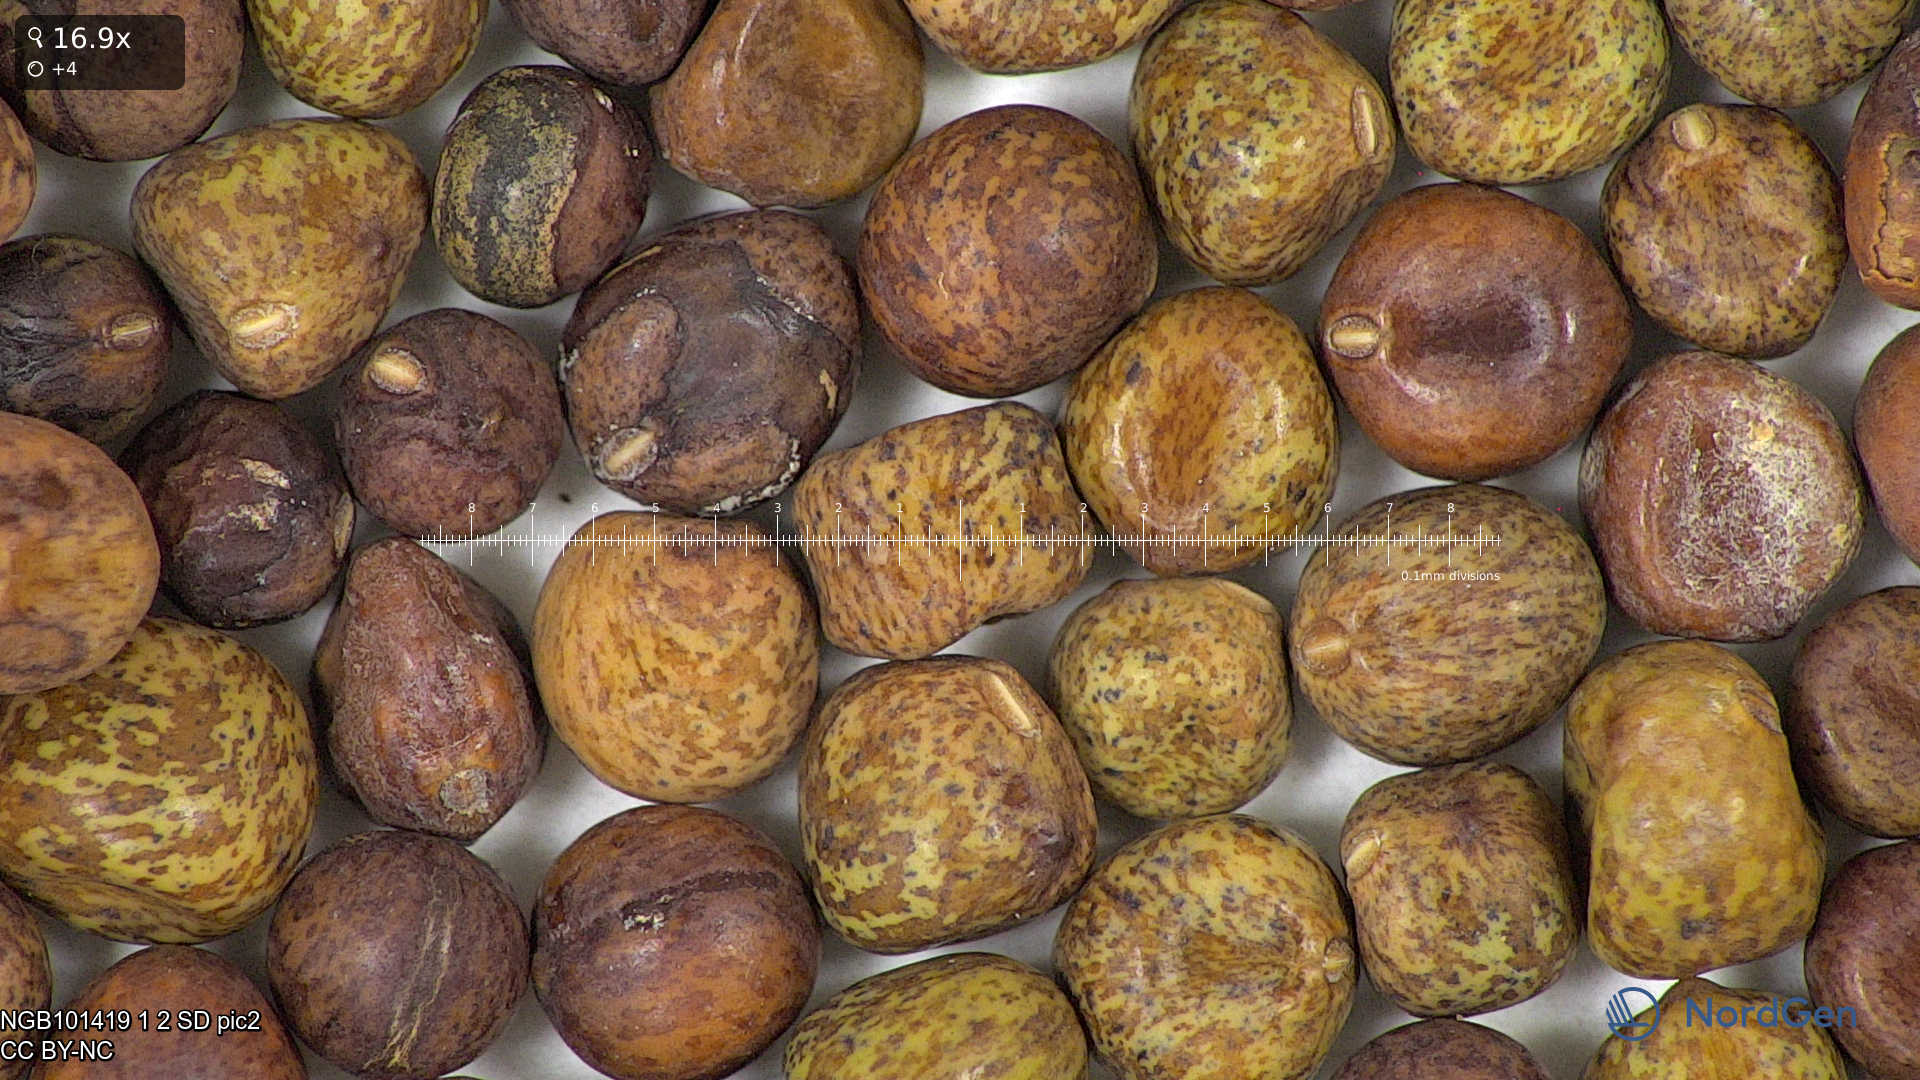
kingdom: Plantae
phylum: Tracheophyta
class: Magnoliopsida
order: Fabales
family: Fabaceae
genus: Lathyrus
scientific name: Lathyrus oleraceus
